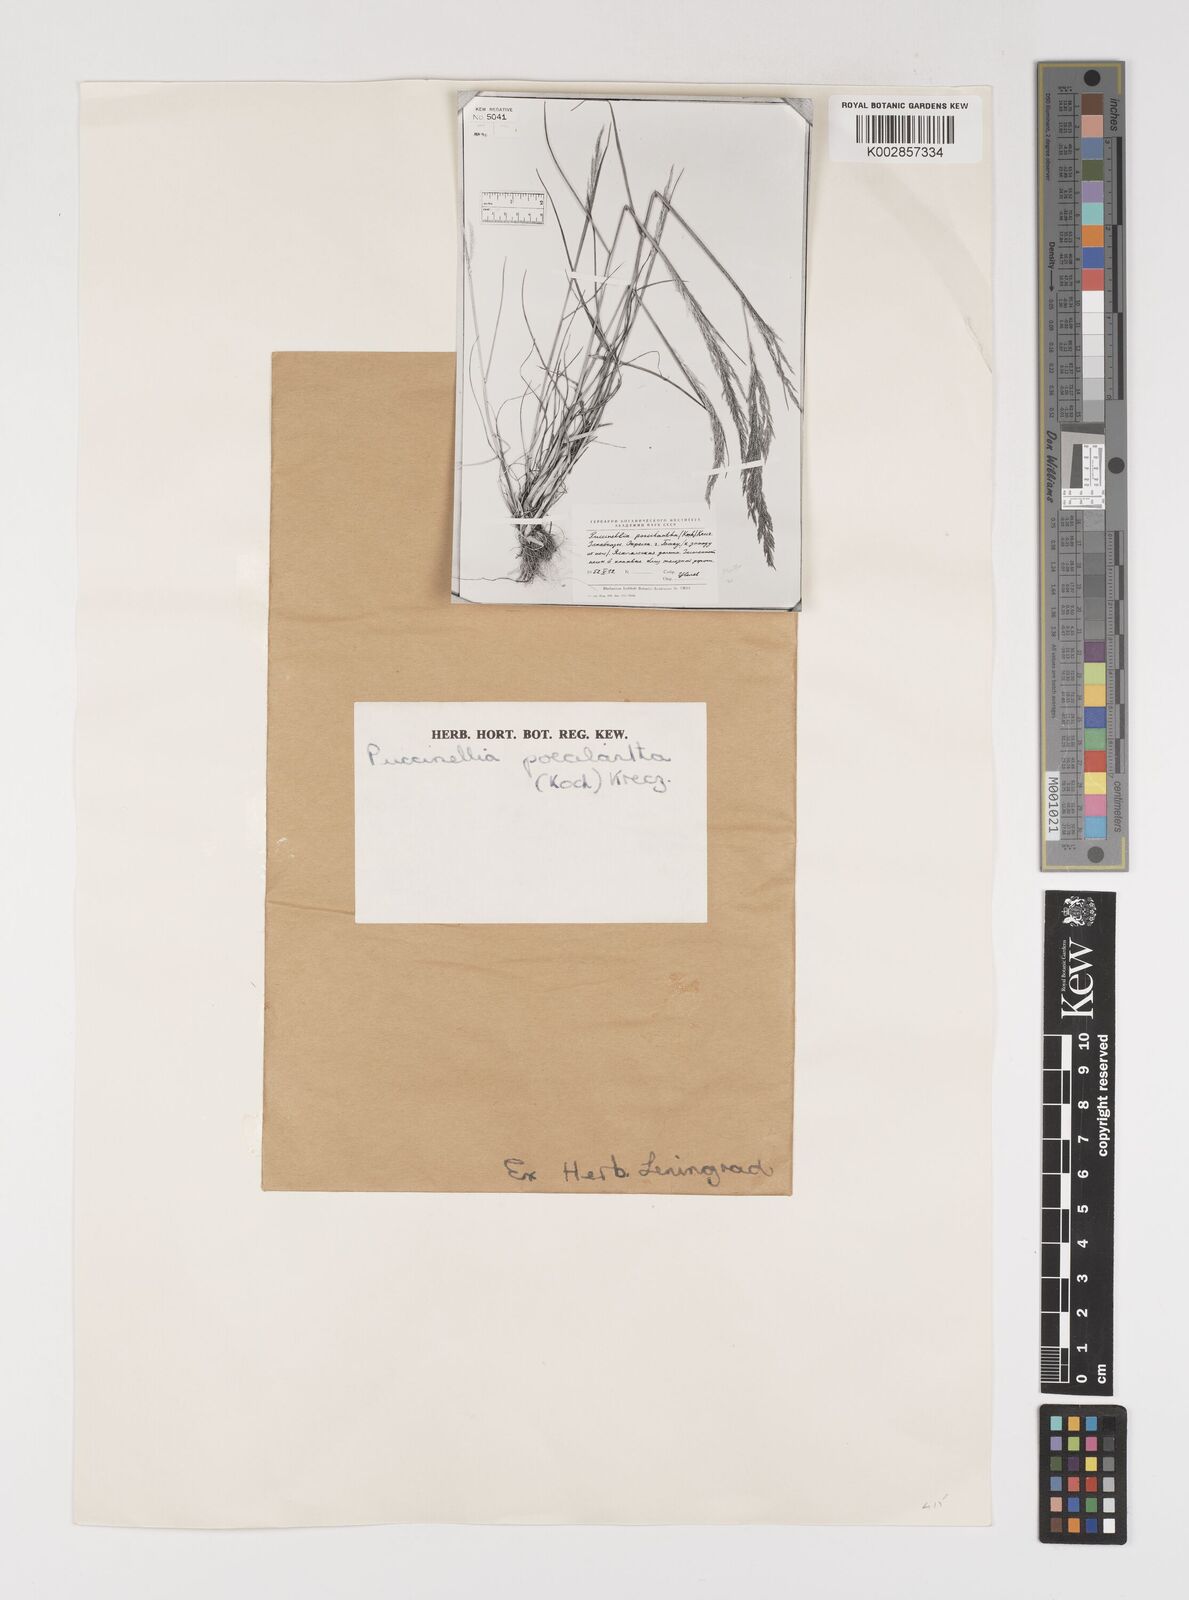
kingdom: Plantae
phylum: Tracheophyta
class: Liliopsida
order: Poales
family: Poaceae
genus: Puccinellia
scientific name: Puccinellia poecilantha
